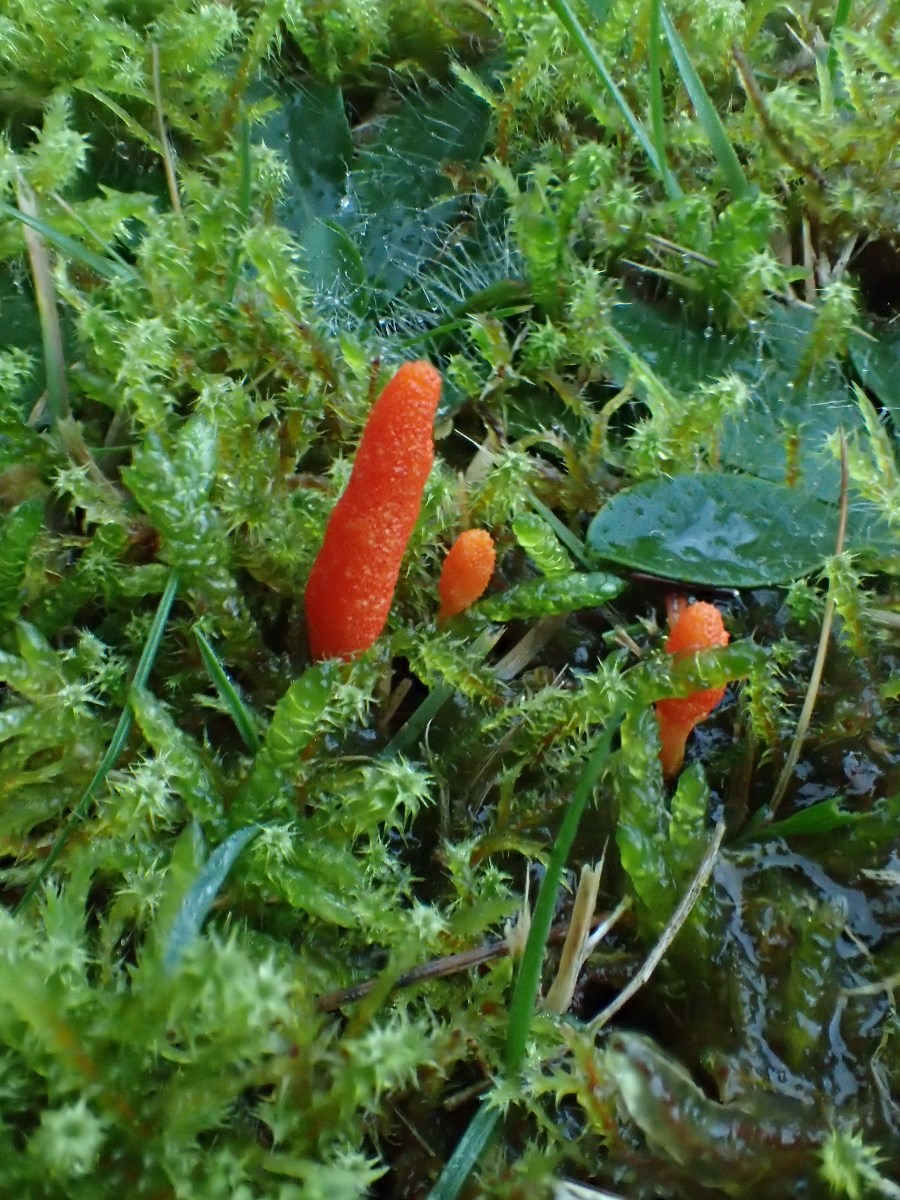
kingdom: Fungi
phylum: Ascomycota
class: Sordariomycetes
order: Hypocreales
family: Cordycipitaceae
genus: Cordyceps
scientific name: Cordyceps militaris
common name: puppe-snyltekølle
